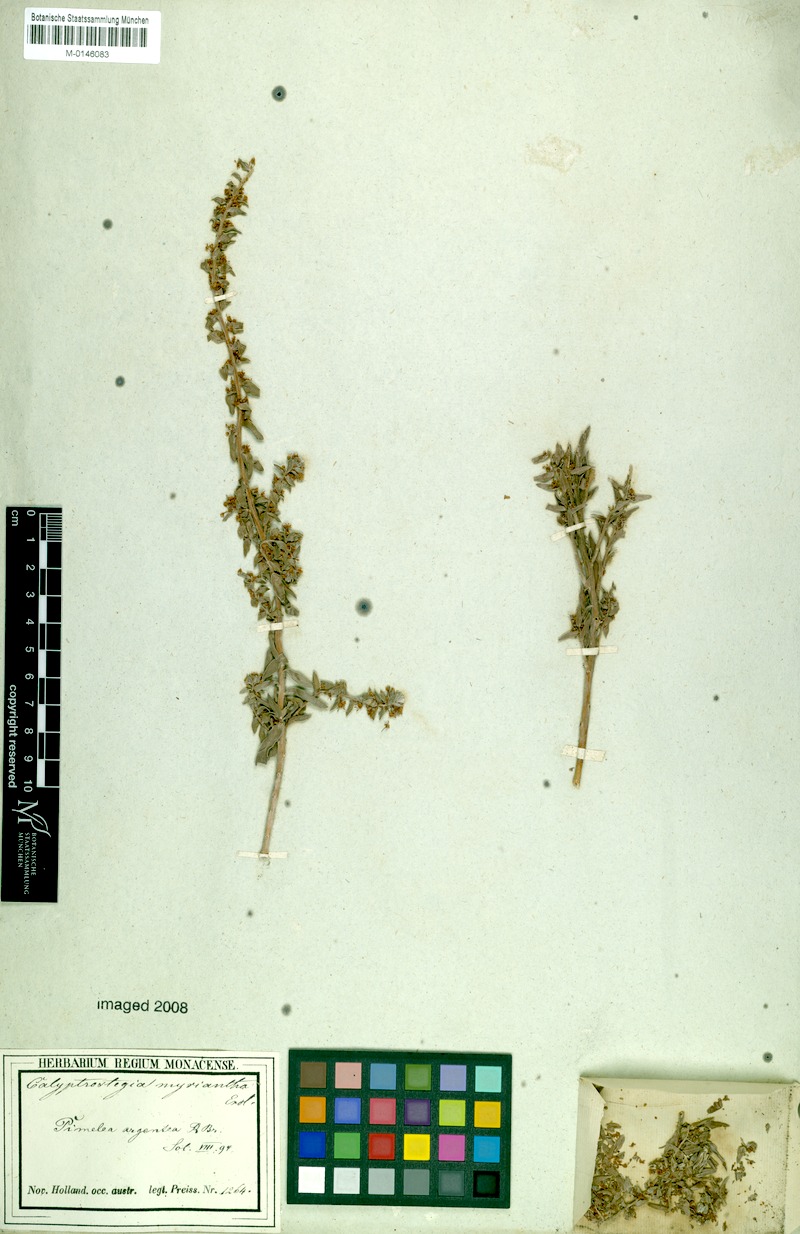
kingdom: Plantae
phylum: Tracheophyta
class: Magnoliopsida
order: Malvales
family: Thymelaeaceae
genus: Pimelea
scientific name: Pimelea argentea
